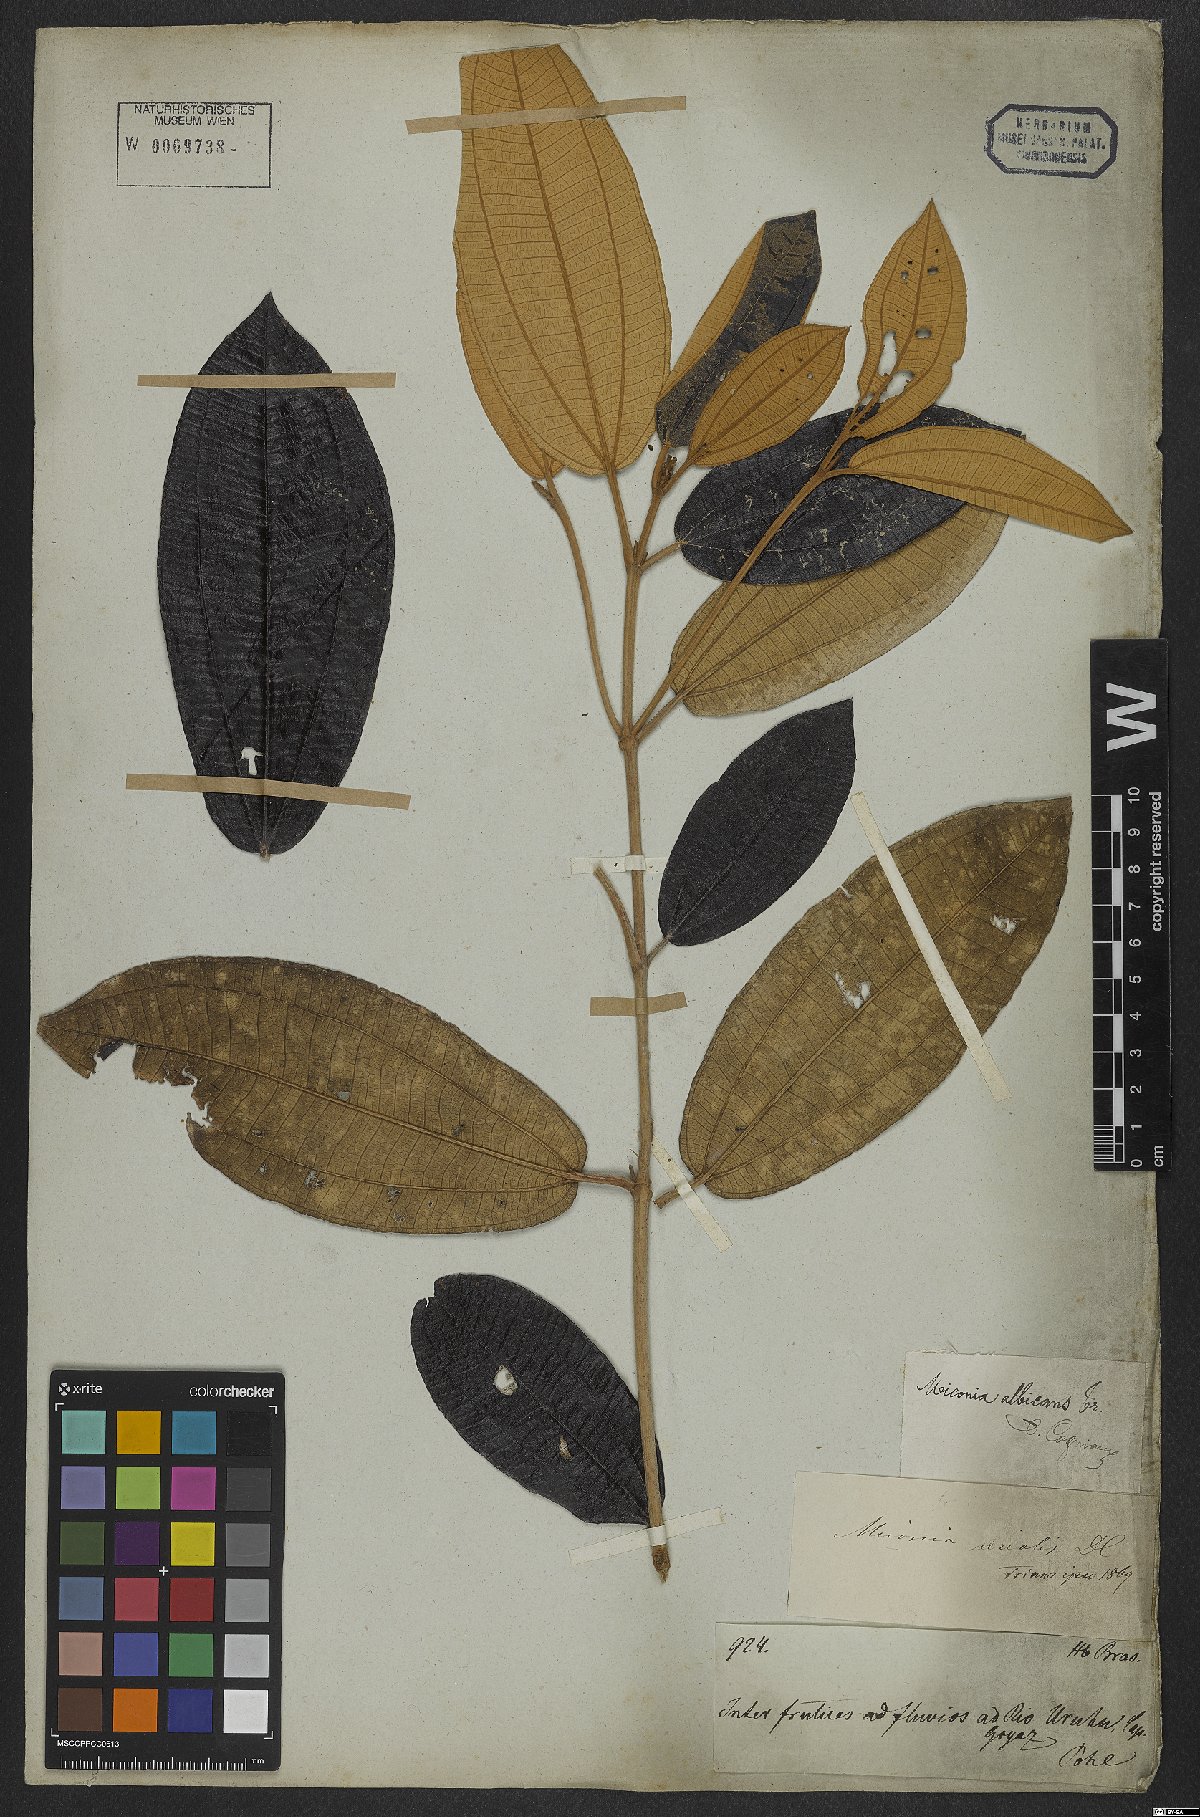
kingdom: Plantae
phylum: Tracheophyta
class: Magnoliopsida
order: Myrtales
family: Melastomataceae
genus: Miconia
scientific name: Miconia albicans
